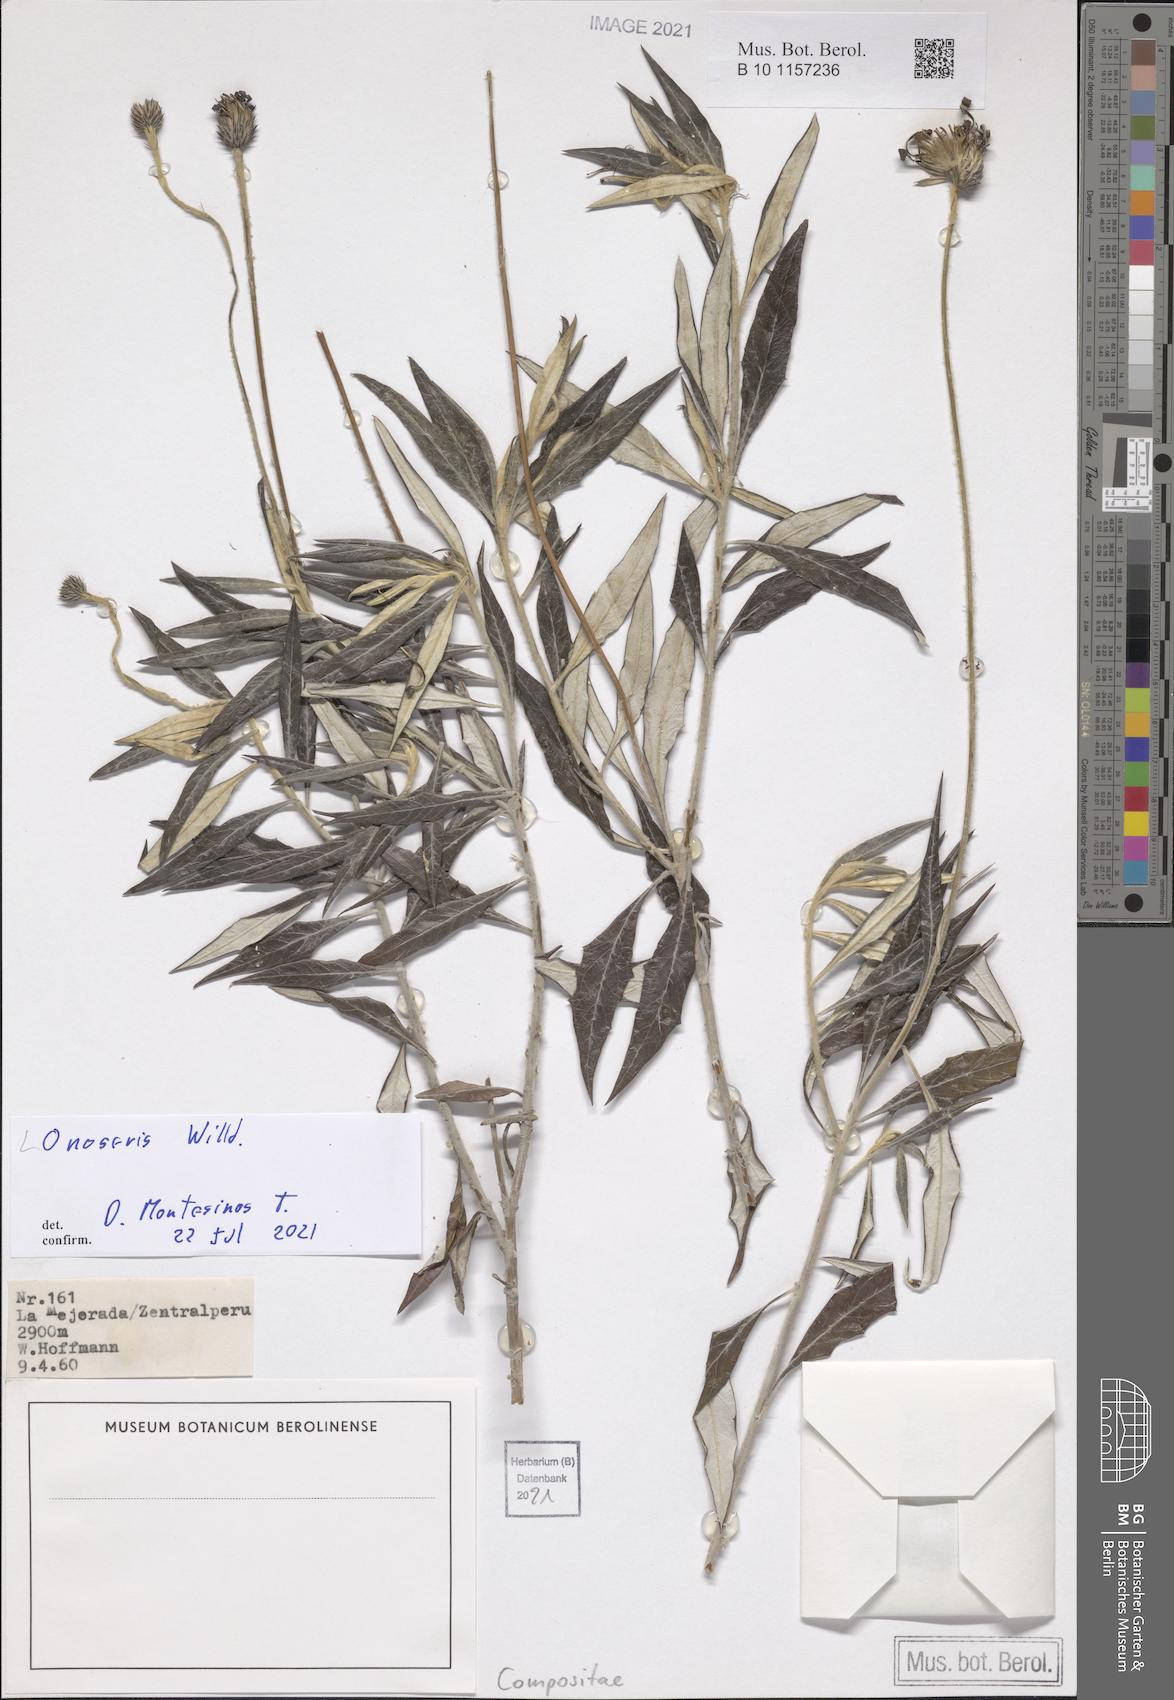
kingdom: Plantae
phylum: Tracheophyta
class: Magnoliopsida
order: Asterales
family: Asteraceae
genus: Onoseris
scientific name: Onoseris
